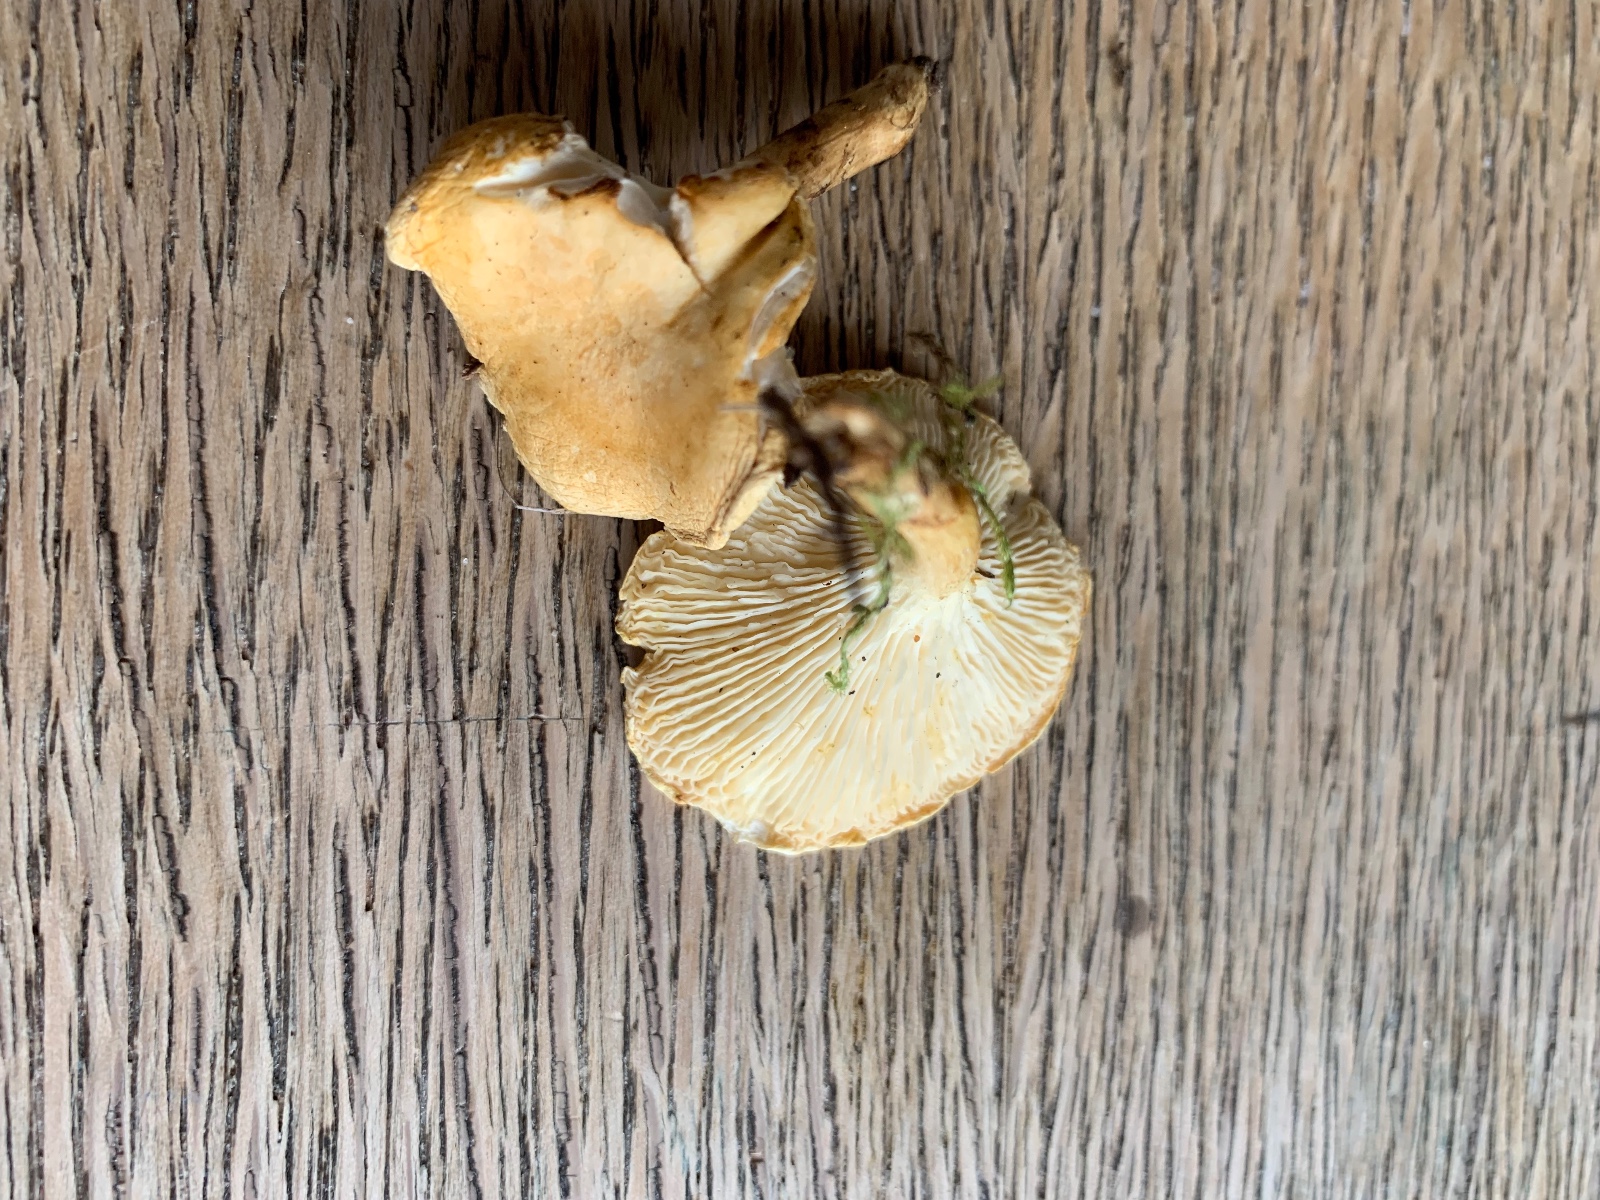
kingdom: Fungi
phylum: Basidiomycota
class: Agaricomycetes
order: Boletales
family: Hygrophoropsidaceae
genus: Hygrophoropsis
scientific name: Hygrophoropsis pallida
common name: bleg orangekantarel
